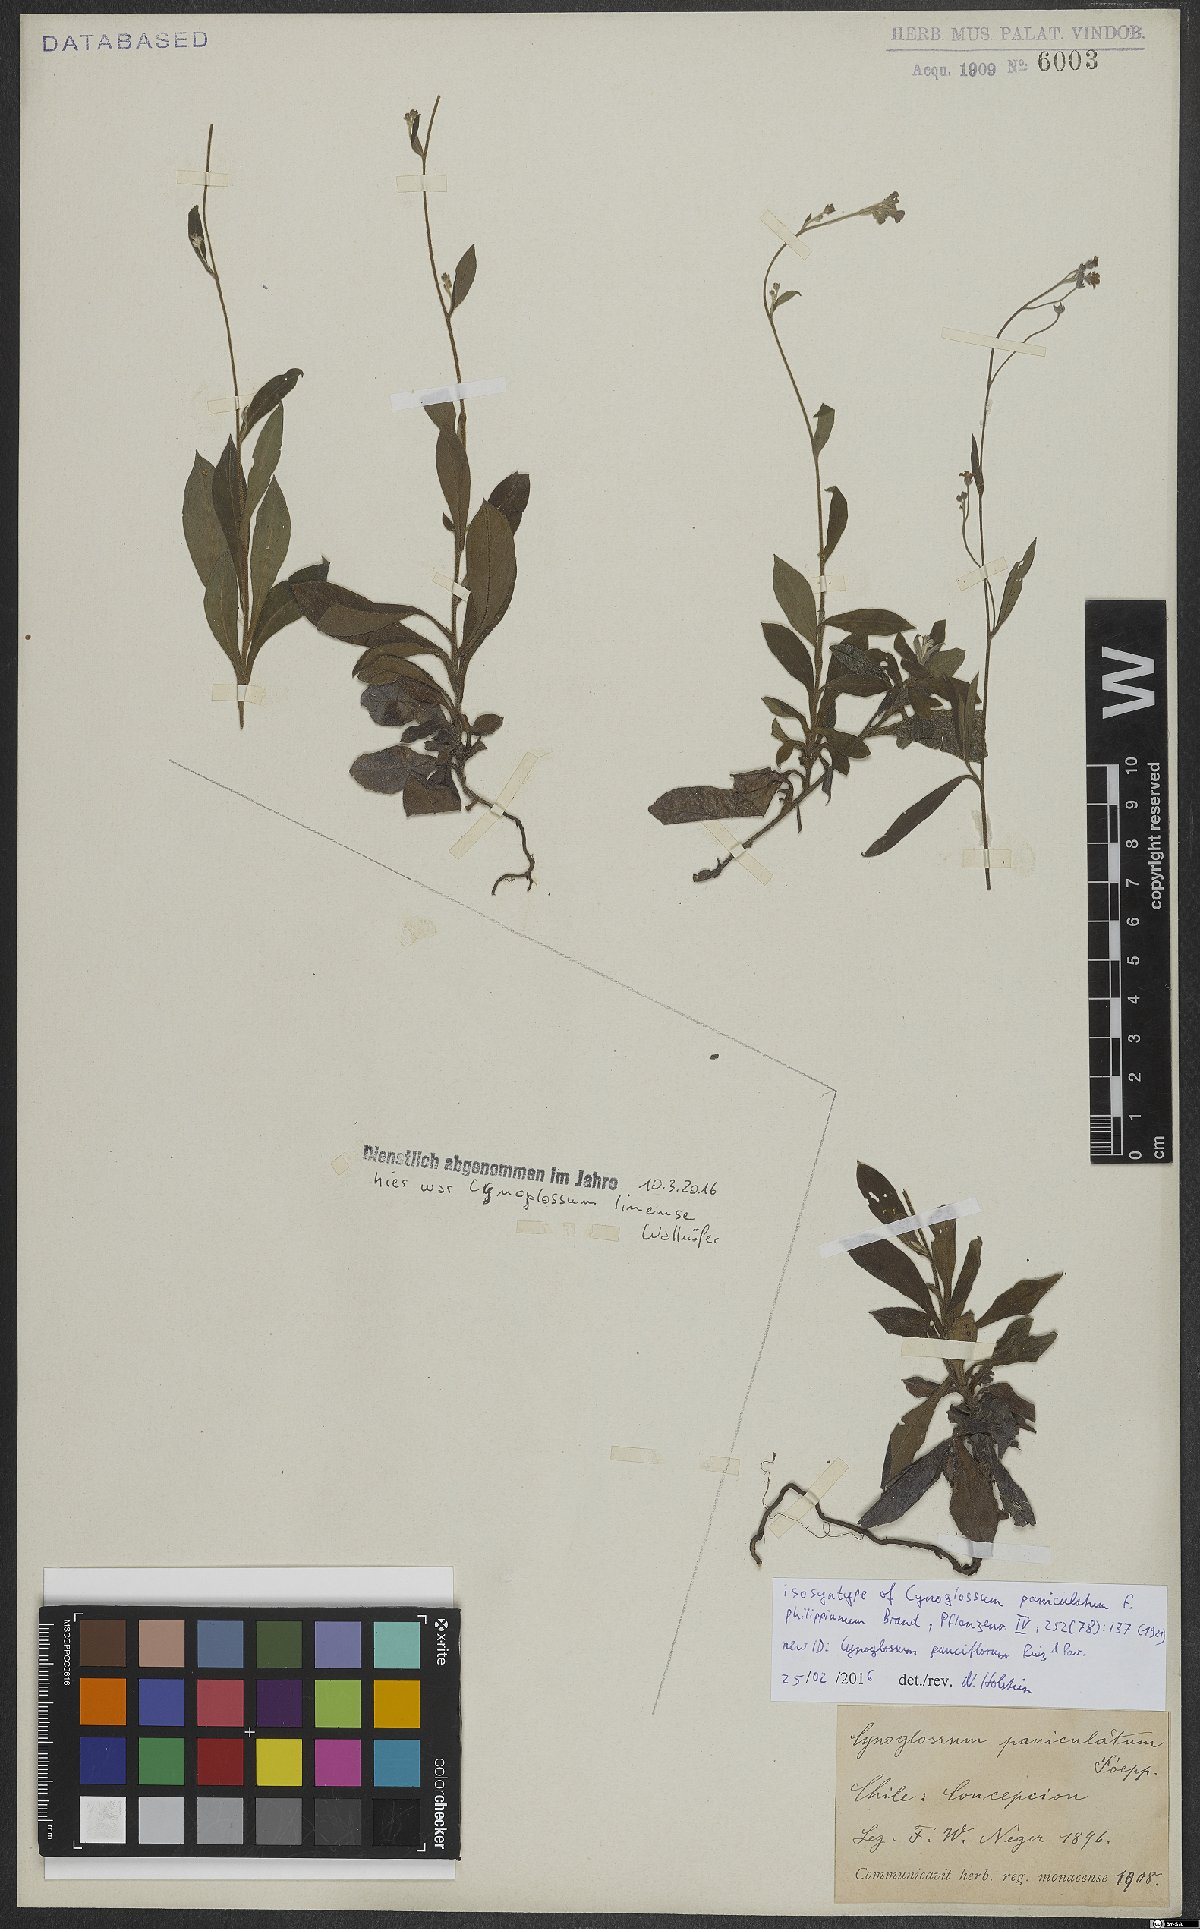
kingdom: Plantae
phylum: Tracheophyta
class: Magnoliopsida
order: Boraginales
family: Boraginaceae
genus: Selkirkia
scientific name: Selkirkia pauciflora
